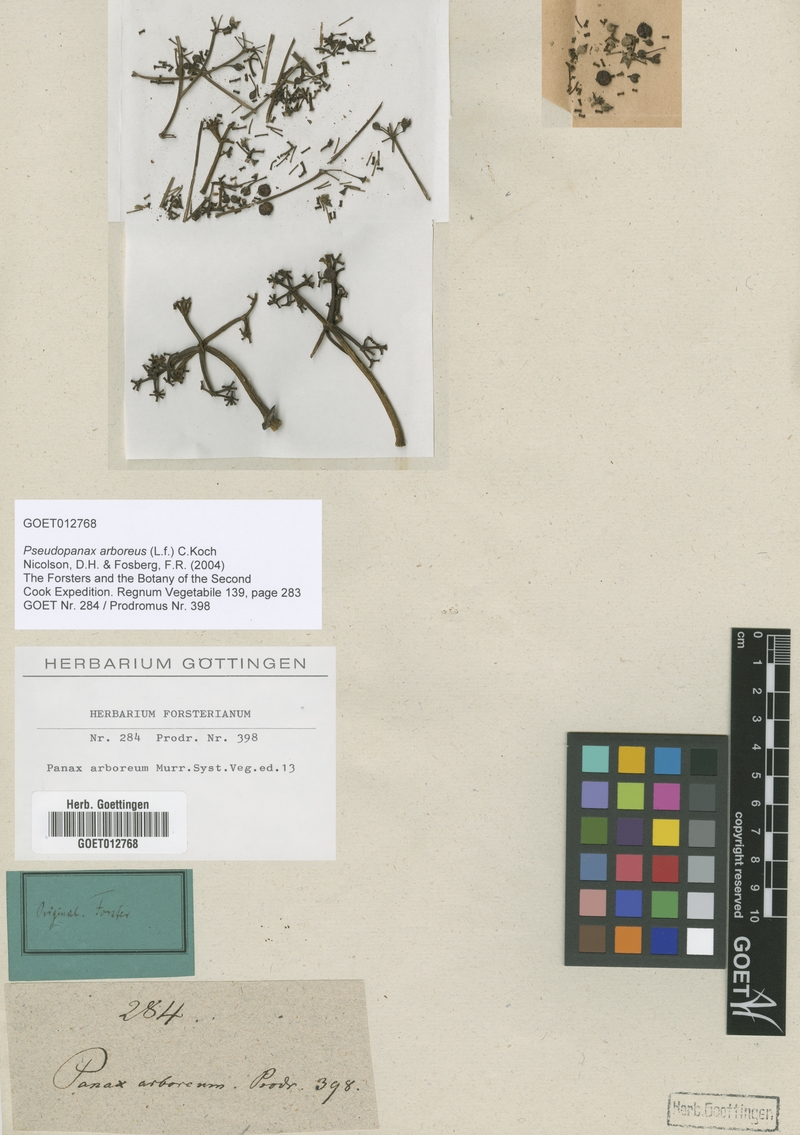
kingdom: Plantae
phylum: Tracheophyta
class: Magnoliopsida
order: Apiales
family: Araliaceae
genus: Neopanax
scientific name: Neopanax arboreus
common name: Five-fingers
